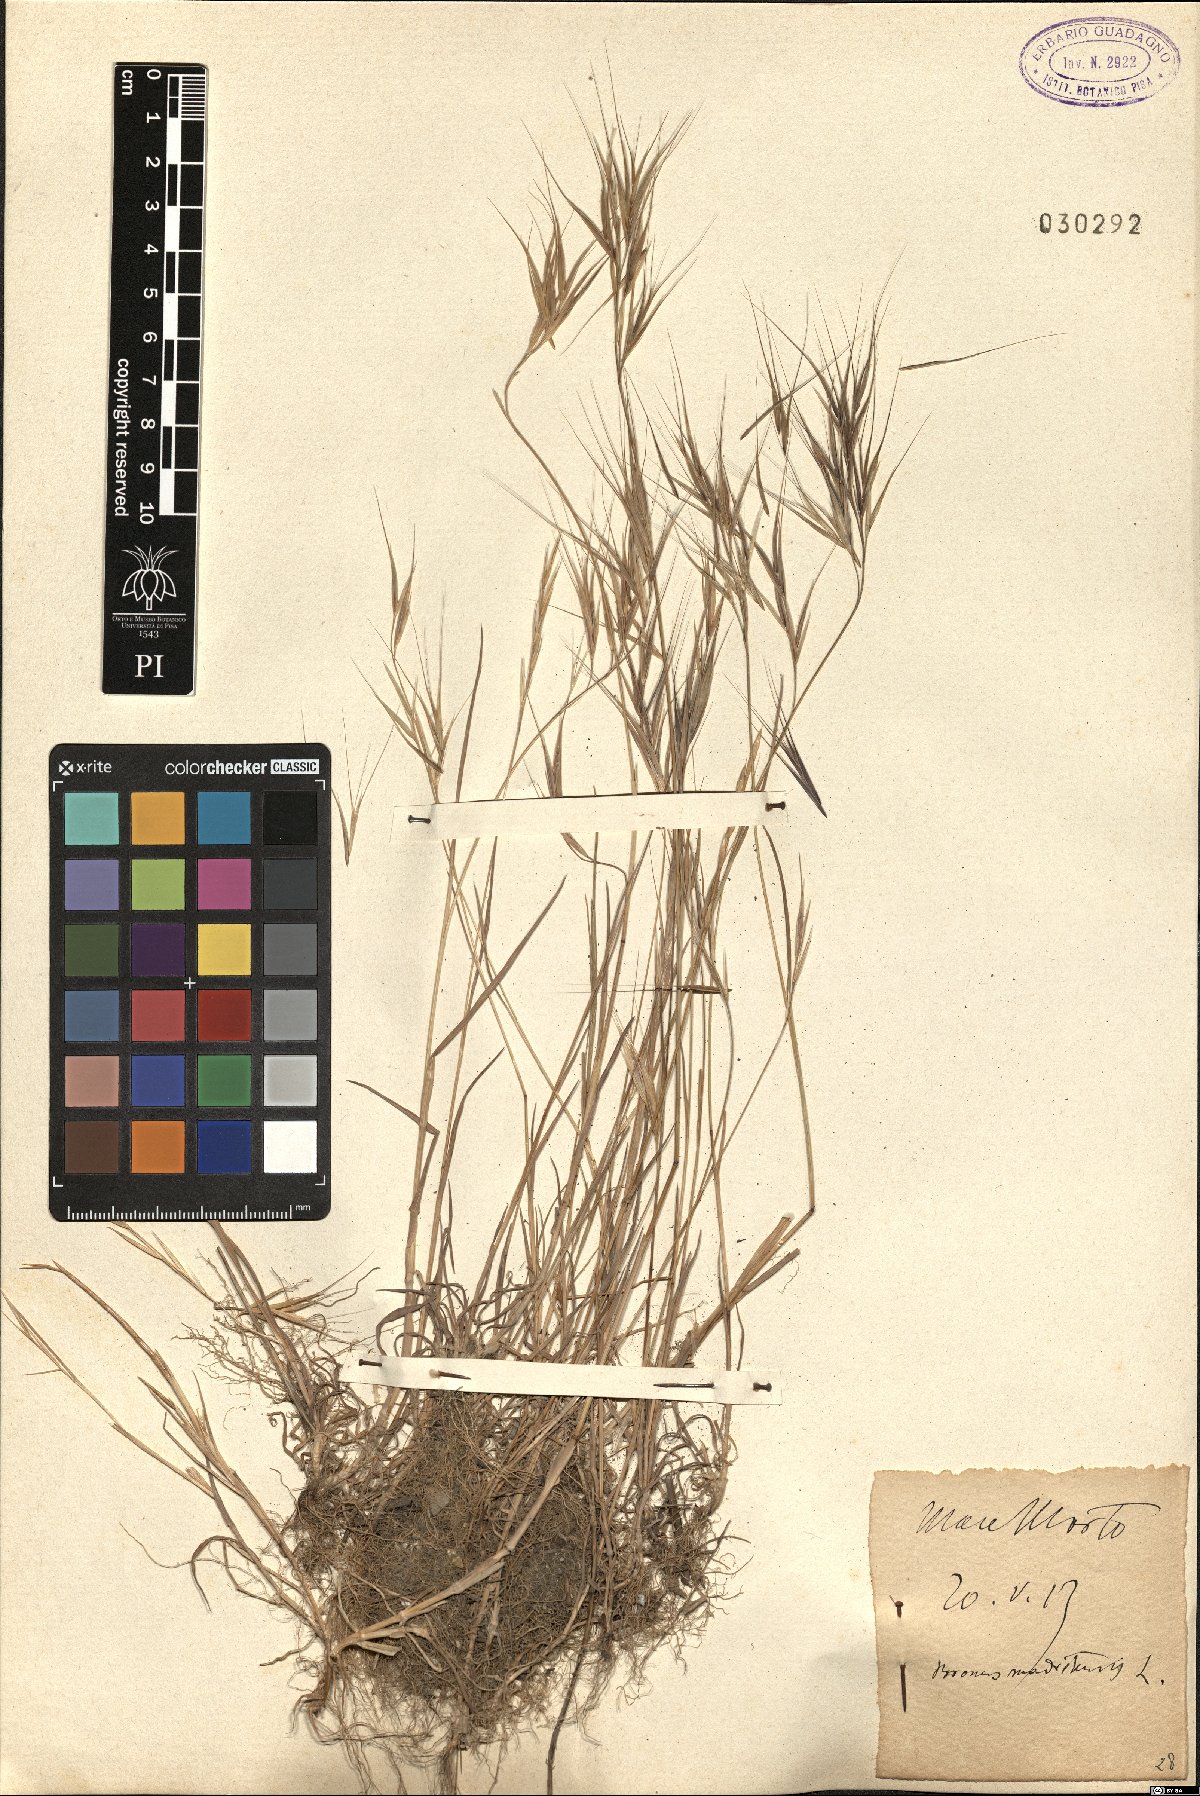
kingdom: Plantae
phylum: Tracheophyta
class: Liliopsida
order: Poales
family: Poaceae
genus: Bromus
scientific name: Bromus madritensis
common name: Compact brome
